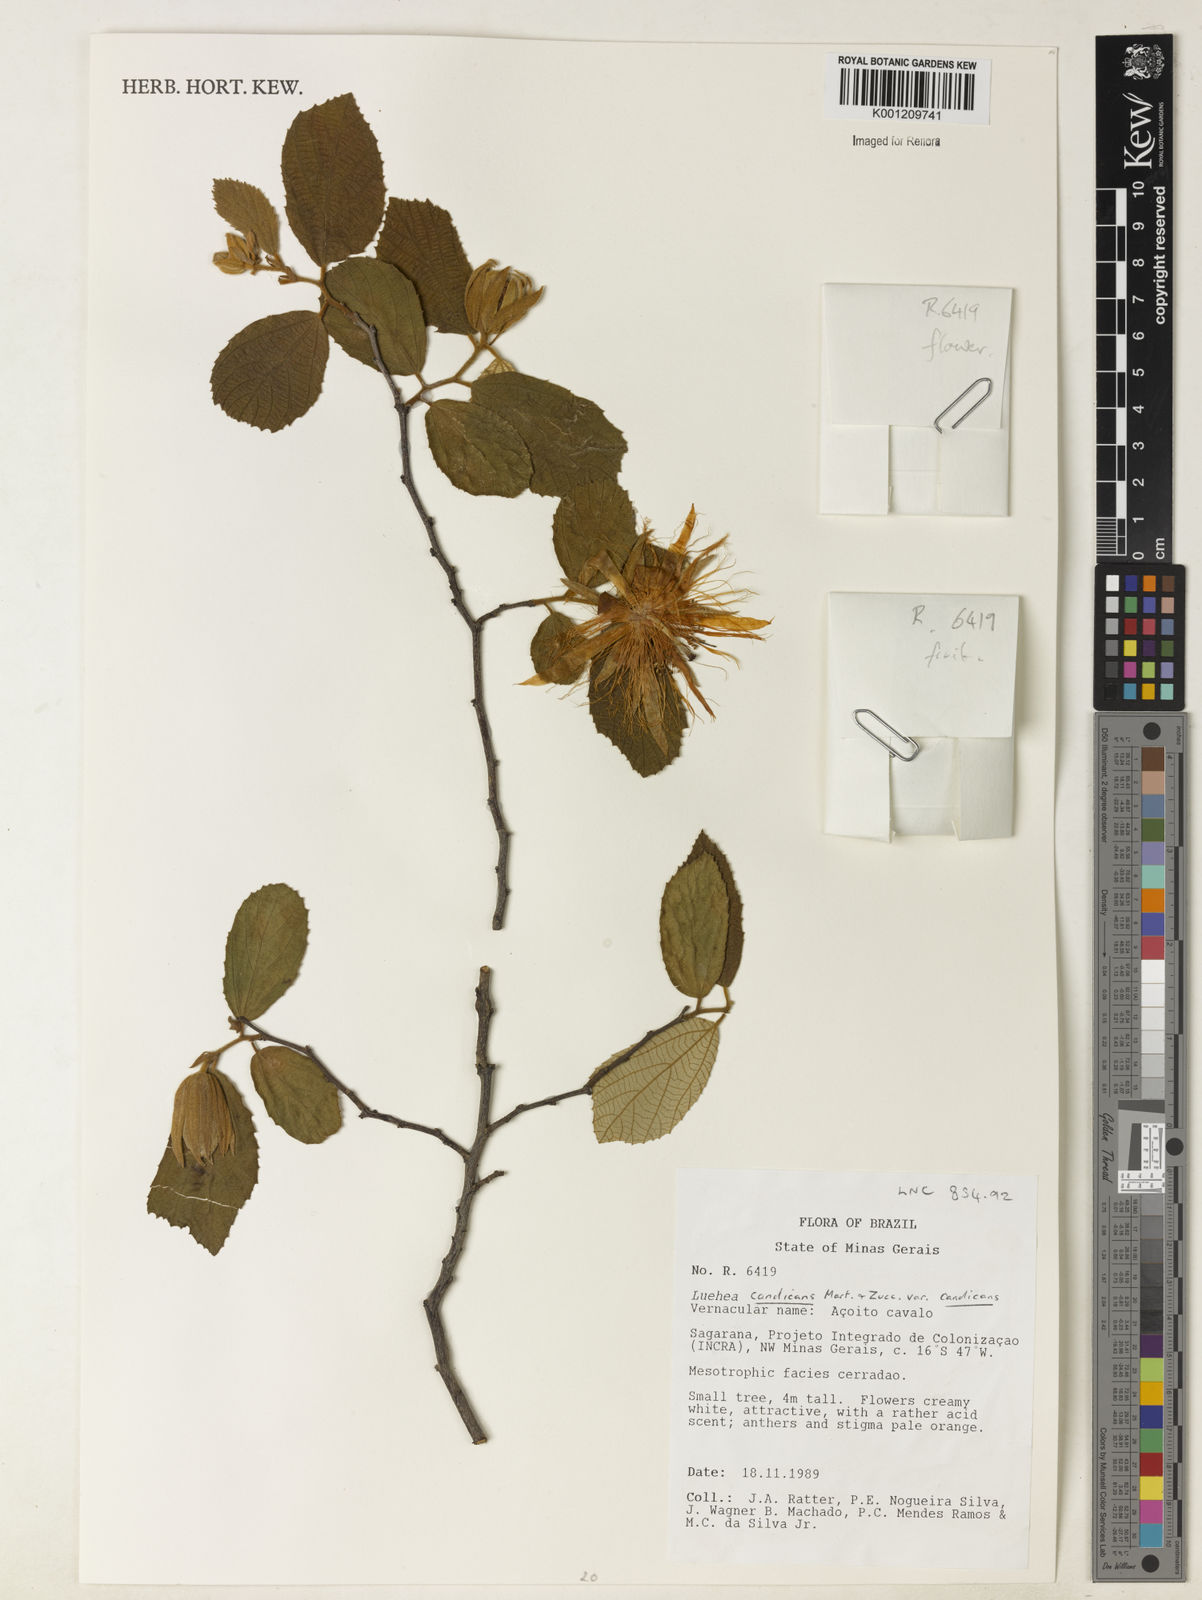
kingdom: Plantae
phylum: Tracheophyta
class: Magnoliopsida
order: Malvales
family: Malvaceae
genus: Luehea
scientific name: Luehea candicans
